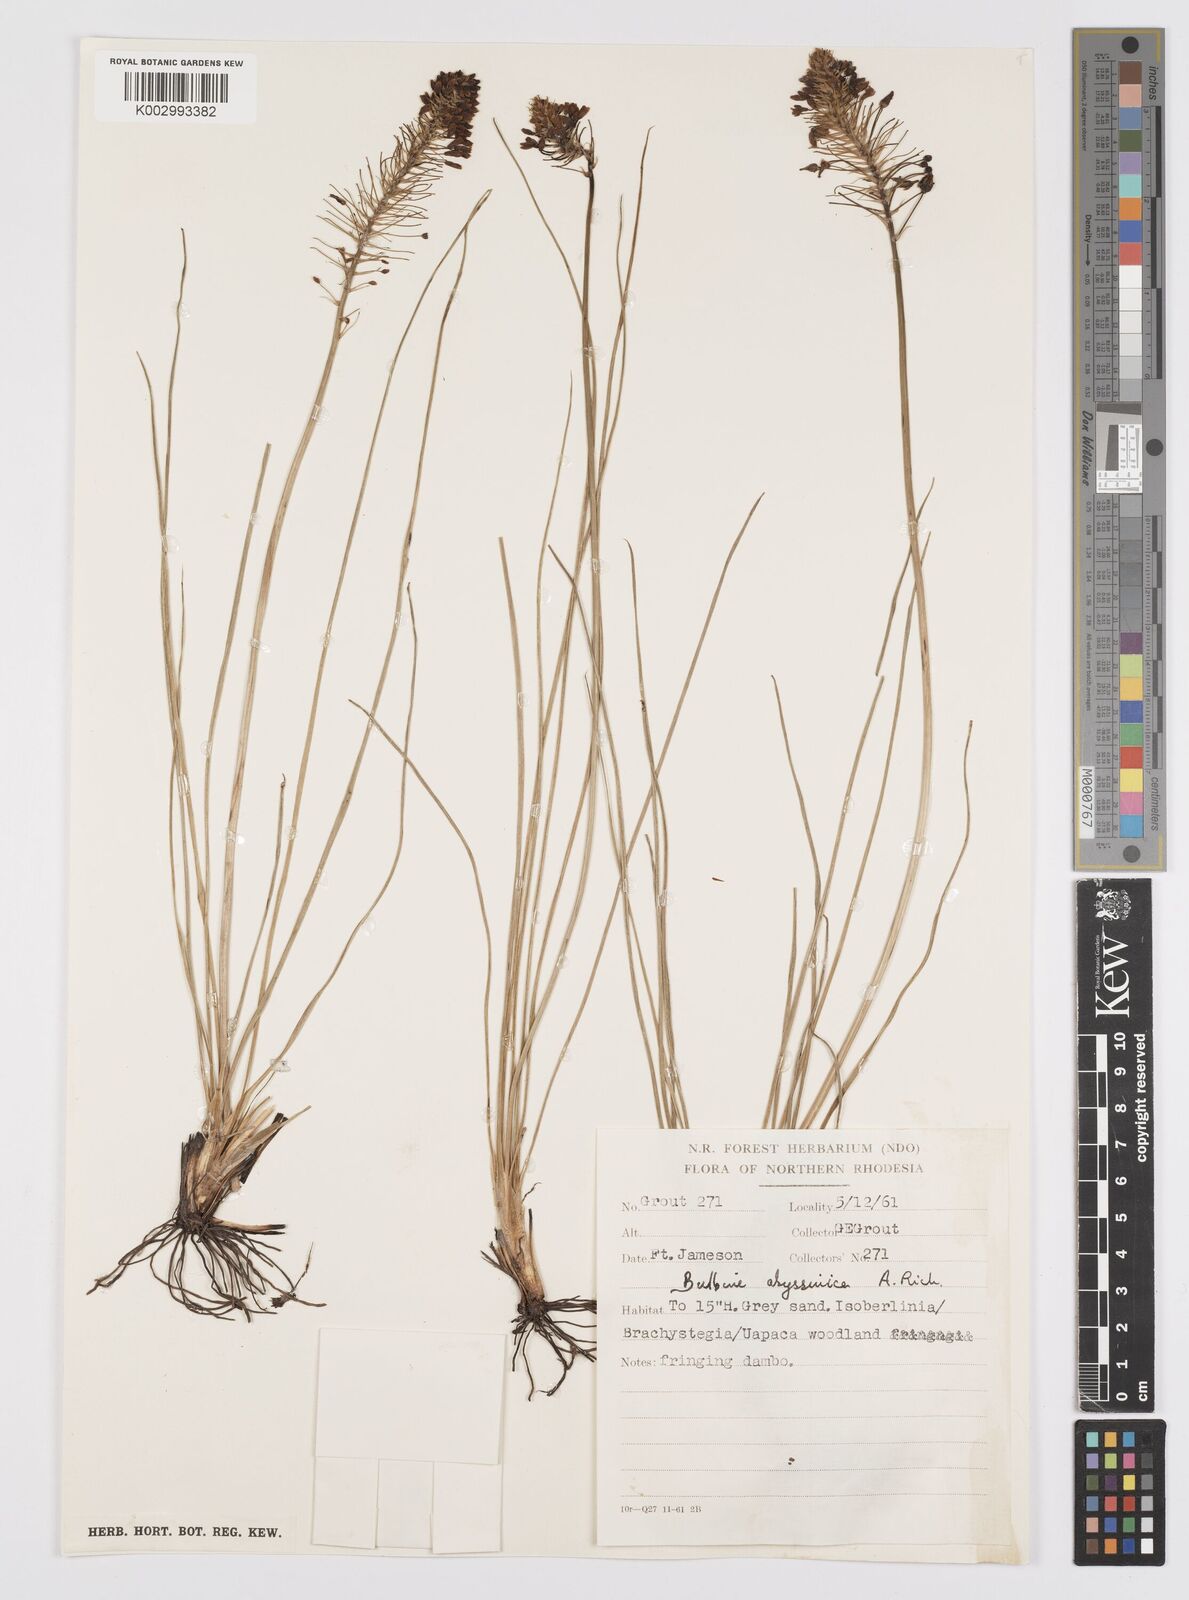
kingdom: Plantae
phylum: Tracheophyta
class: Liliopsida
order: Asparagales
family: Asphodelaceae
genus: Bulbine
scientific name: Bulbine abyssinica
